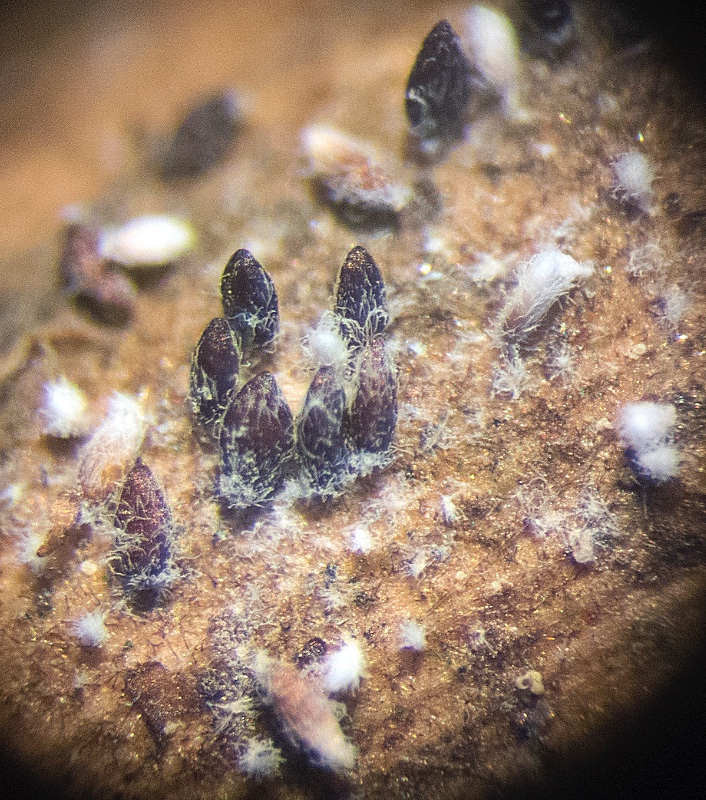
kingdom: Fungi
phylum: Basidiomycota
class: Agaricomycetes
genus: Akenomyces
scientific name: Akenomyces costatus
